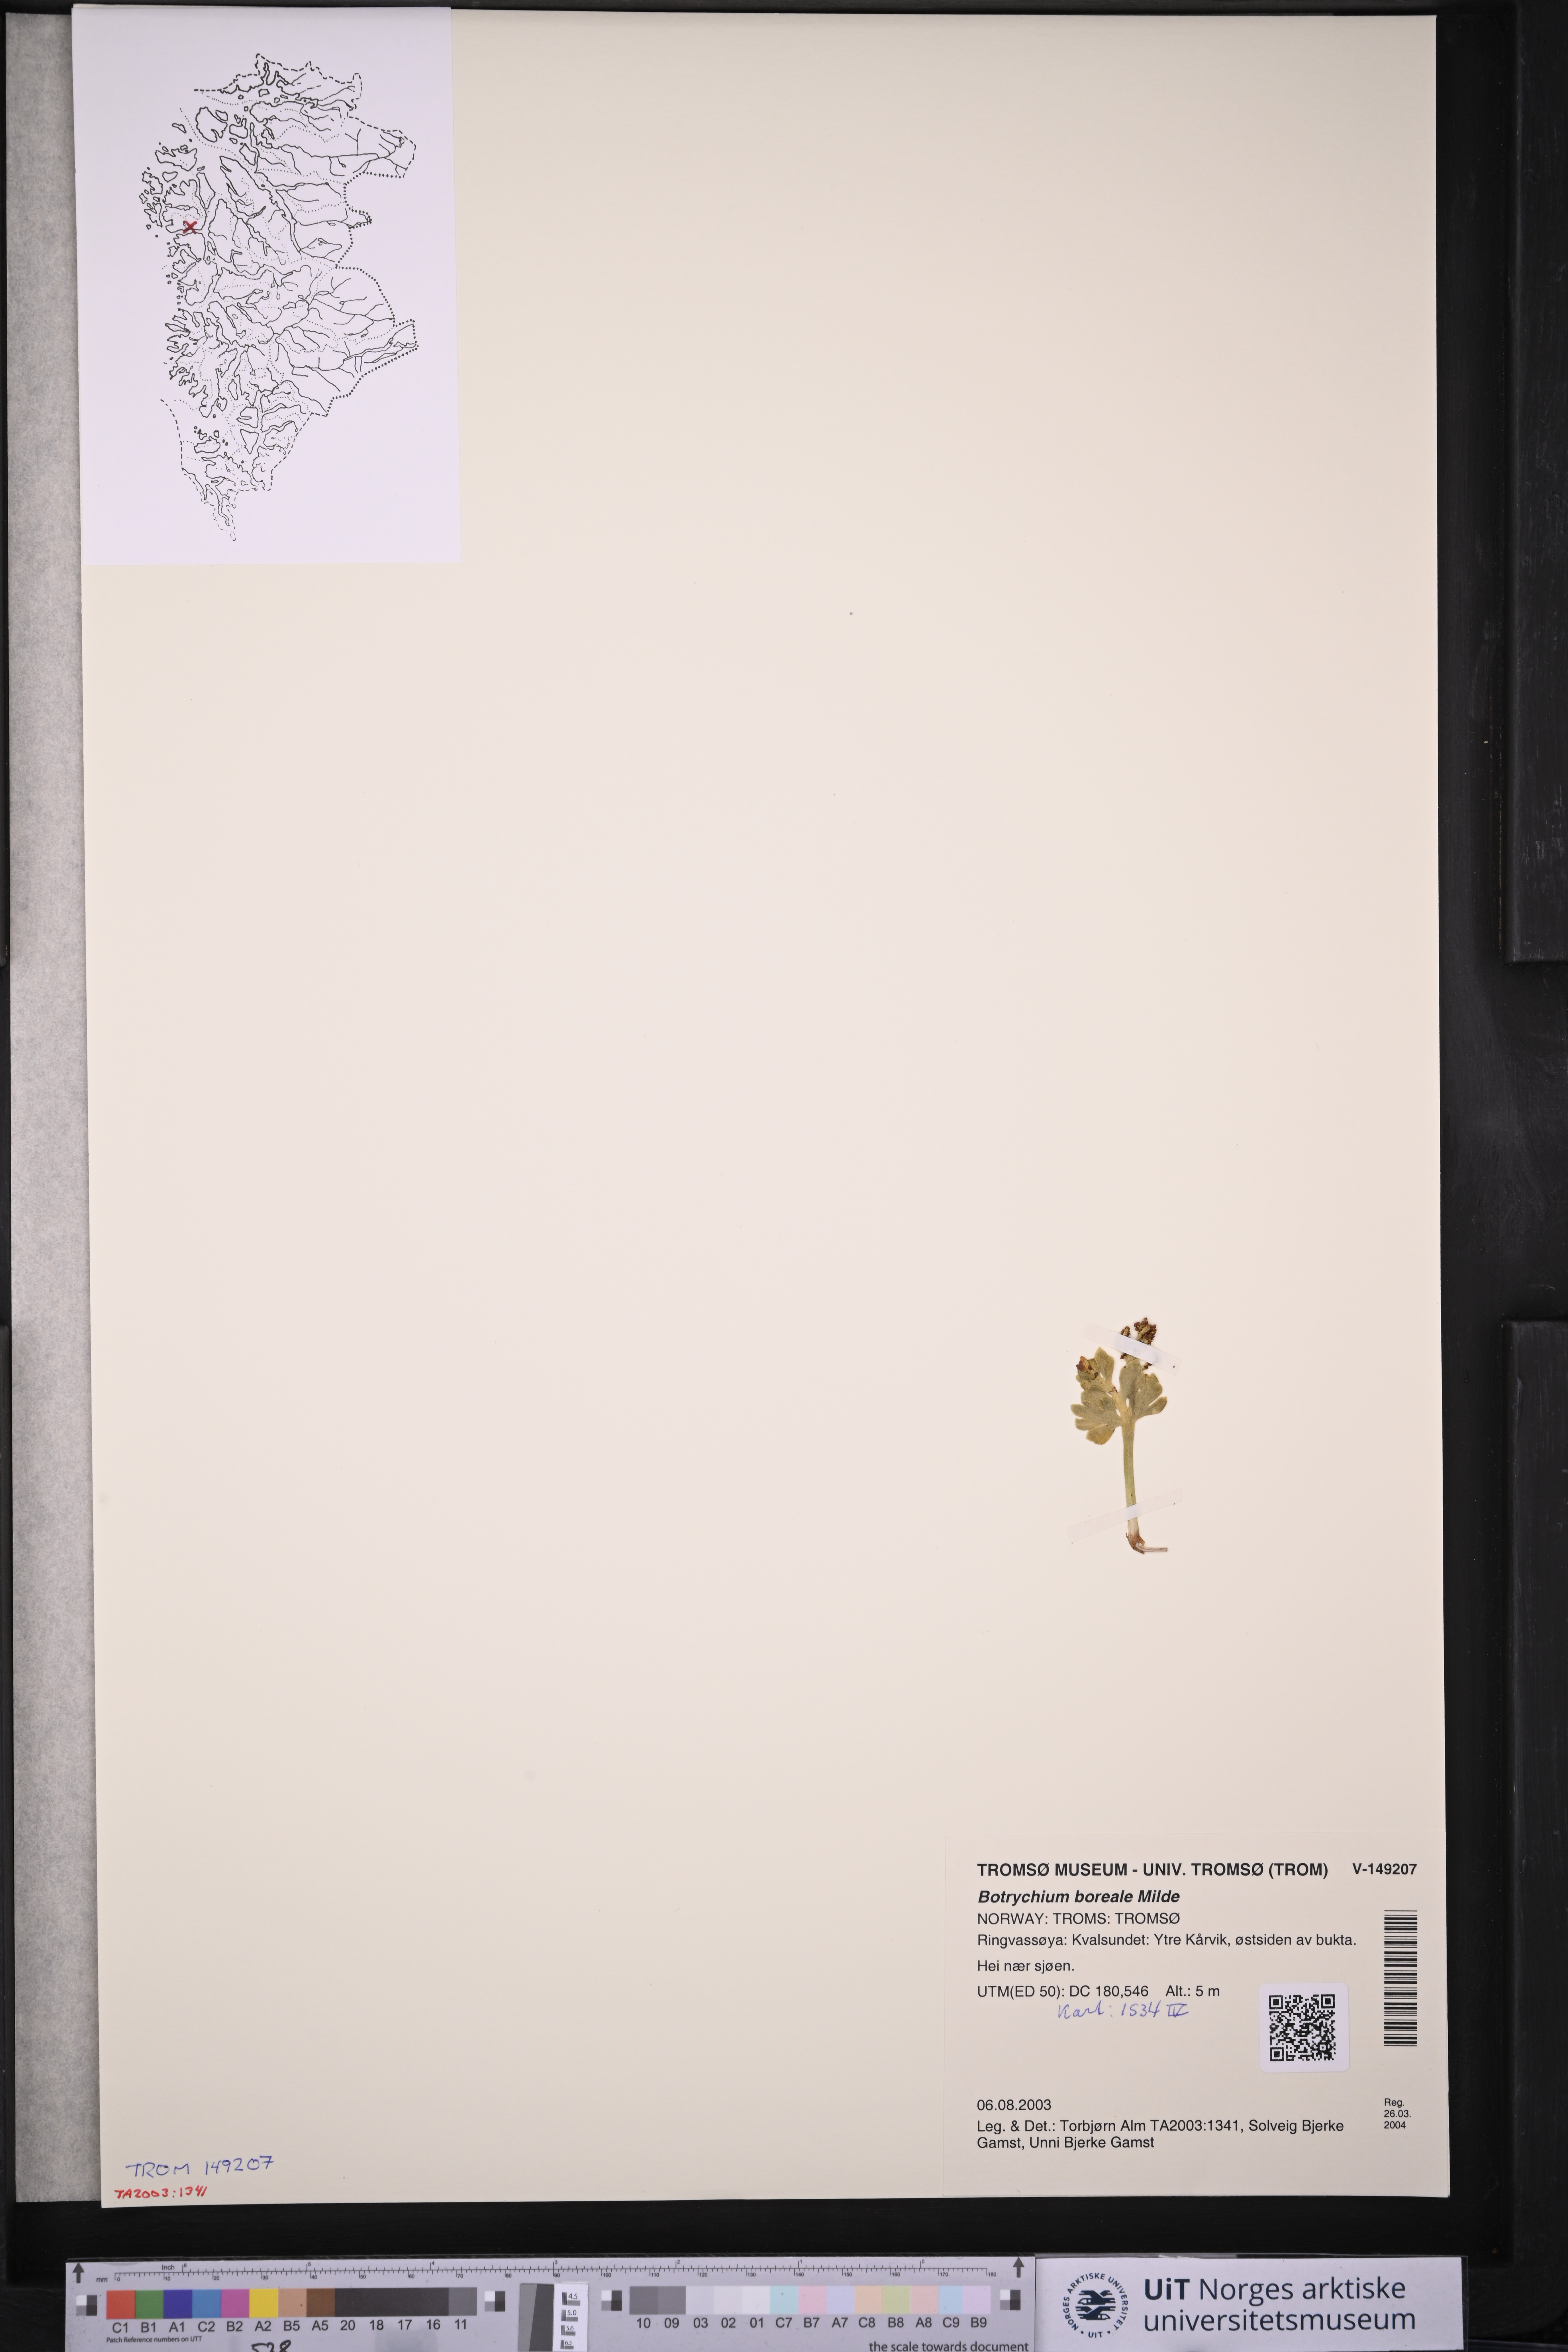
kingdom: Plantae
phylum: Tracheophyta
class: Polypodiopsida
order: Ophioglossales
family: Ophioglossaceae
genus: Botrychium
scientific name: Botrychium boreale
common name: Boreal moonwort
